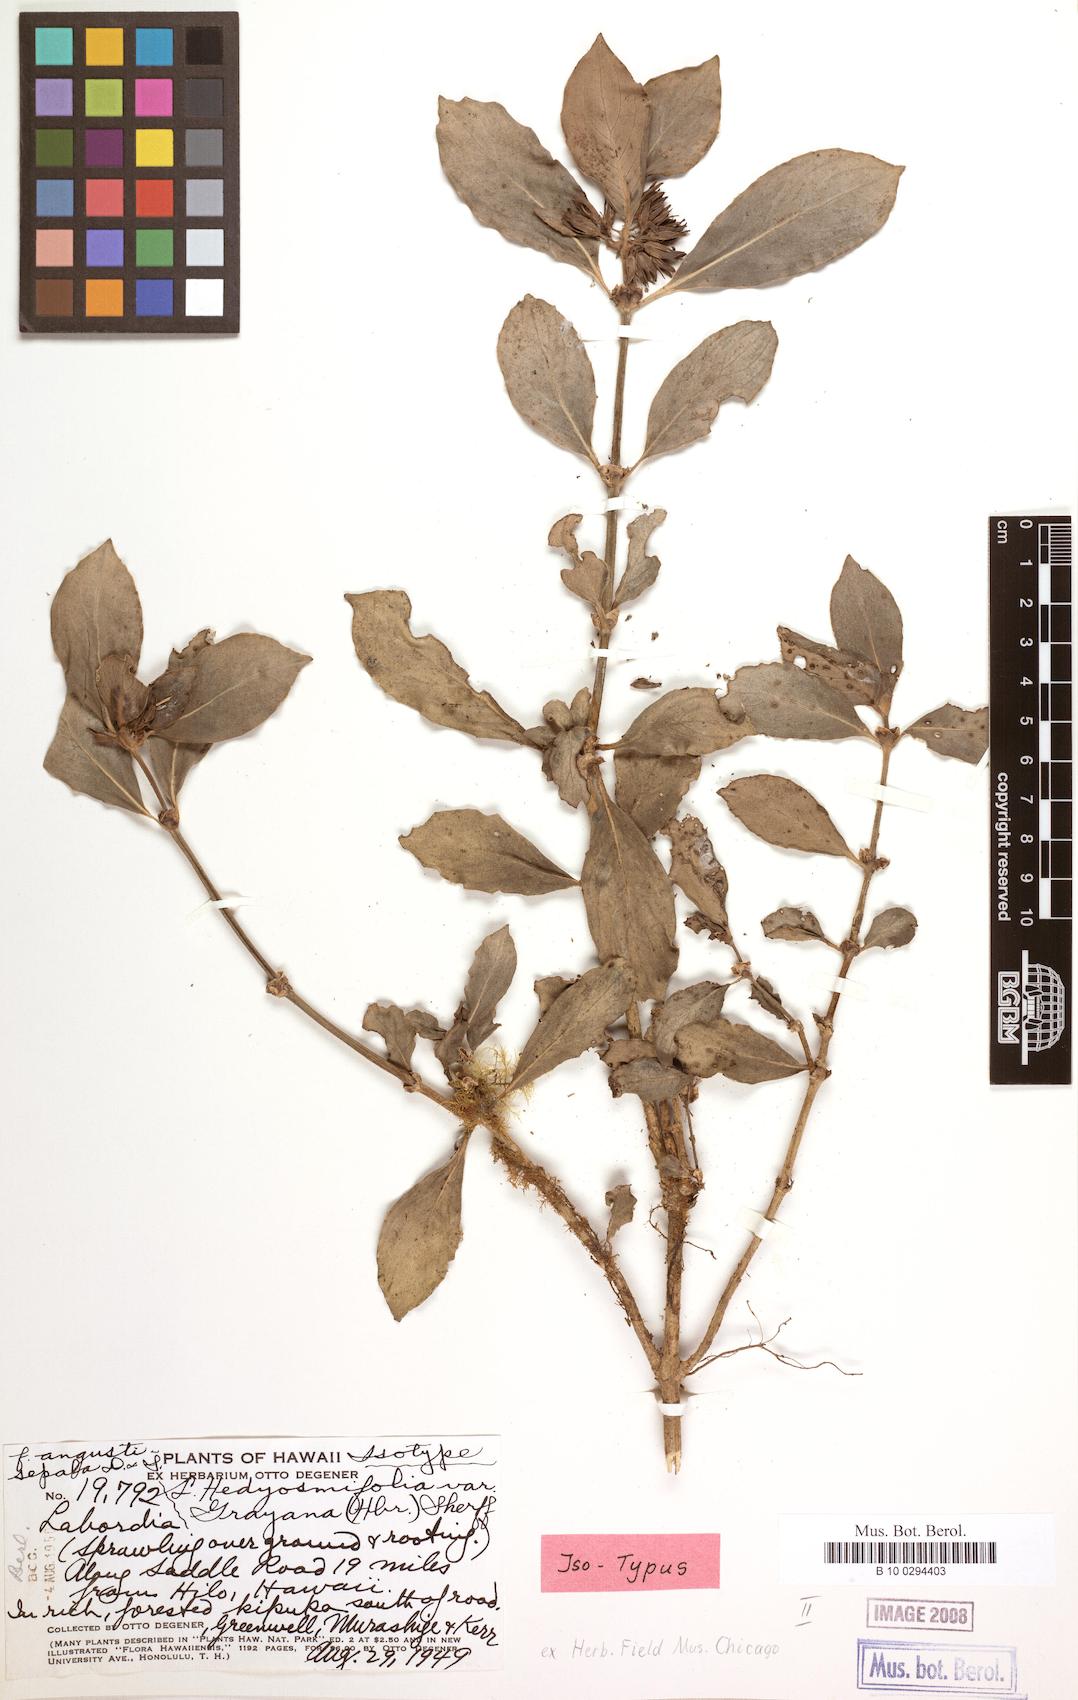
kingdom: Plantae
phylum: Tracheophyta
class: Magnoliopsida
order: Gentianales
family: Loganiaceae
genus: Geniostoma
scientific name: Geniostoma hedyosmifolium
